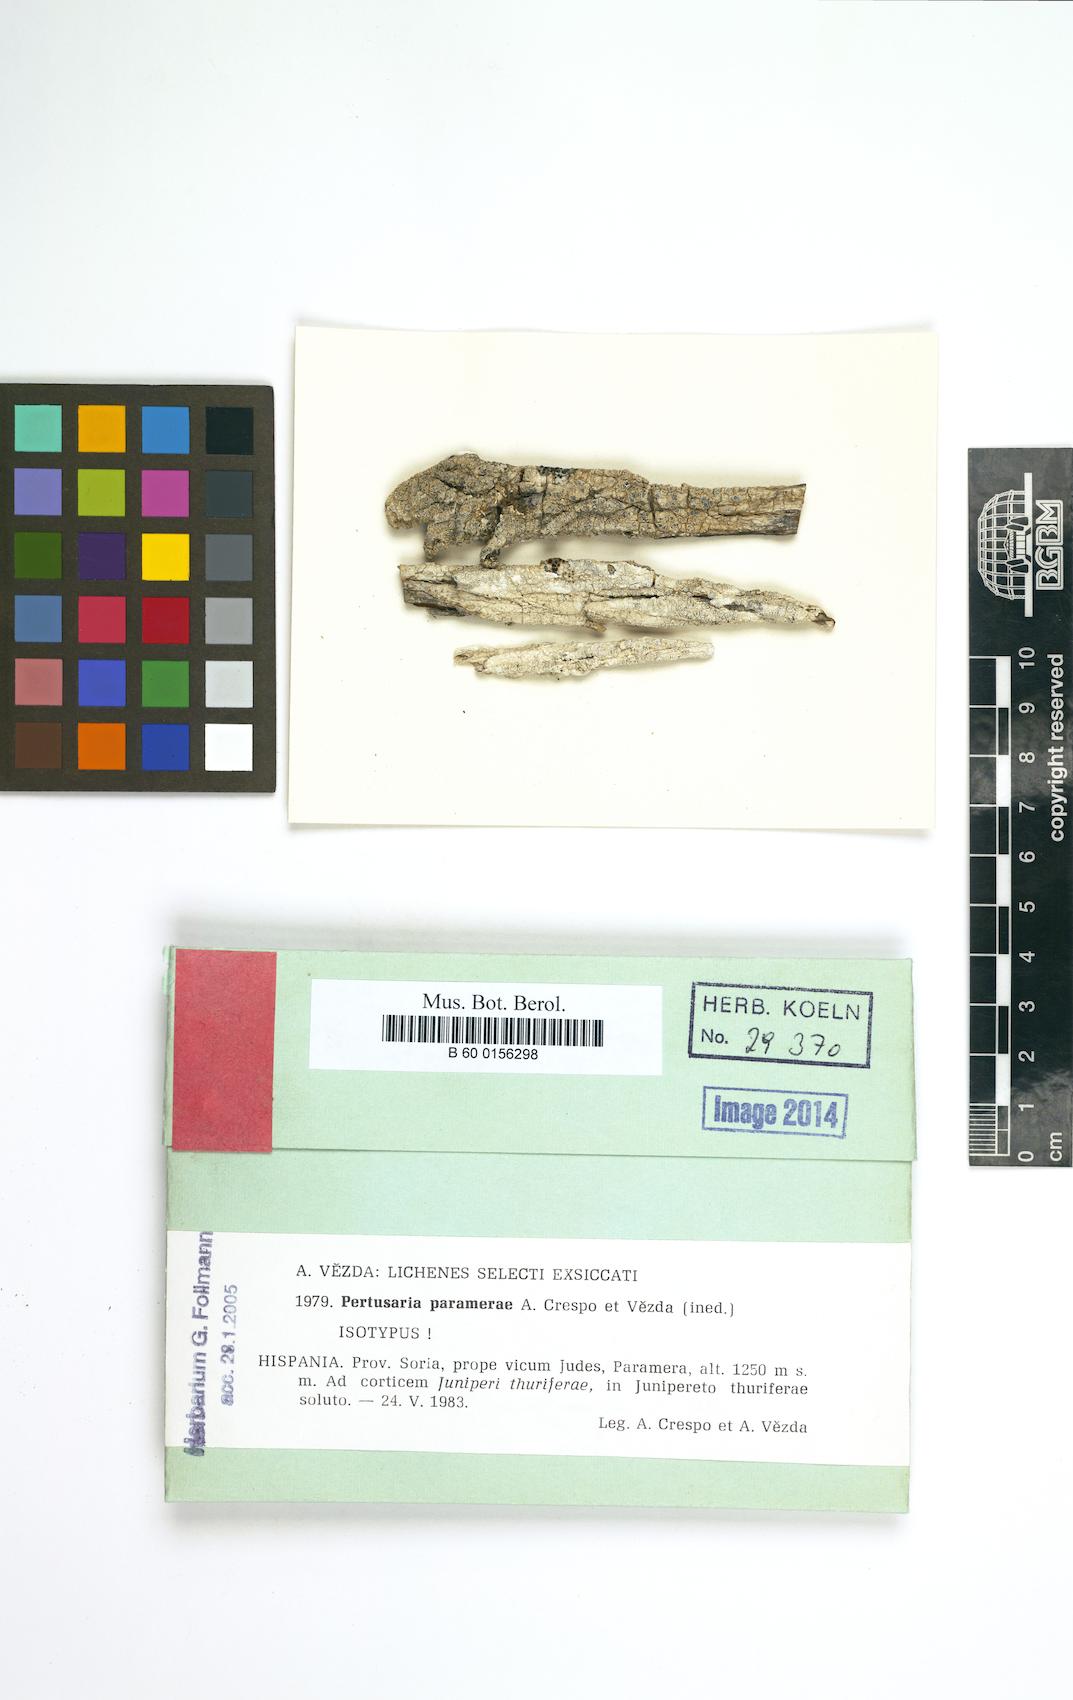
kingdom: Fungi
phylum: Ascomycota
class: Lecanoromycetes
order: Pertusariales
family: Pertusariaceae
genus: Pertusaria
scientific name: Pertusaria paramerae
